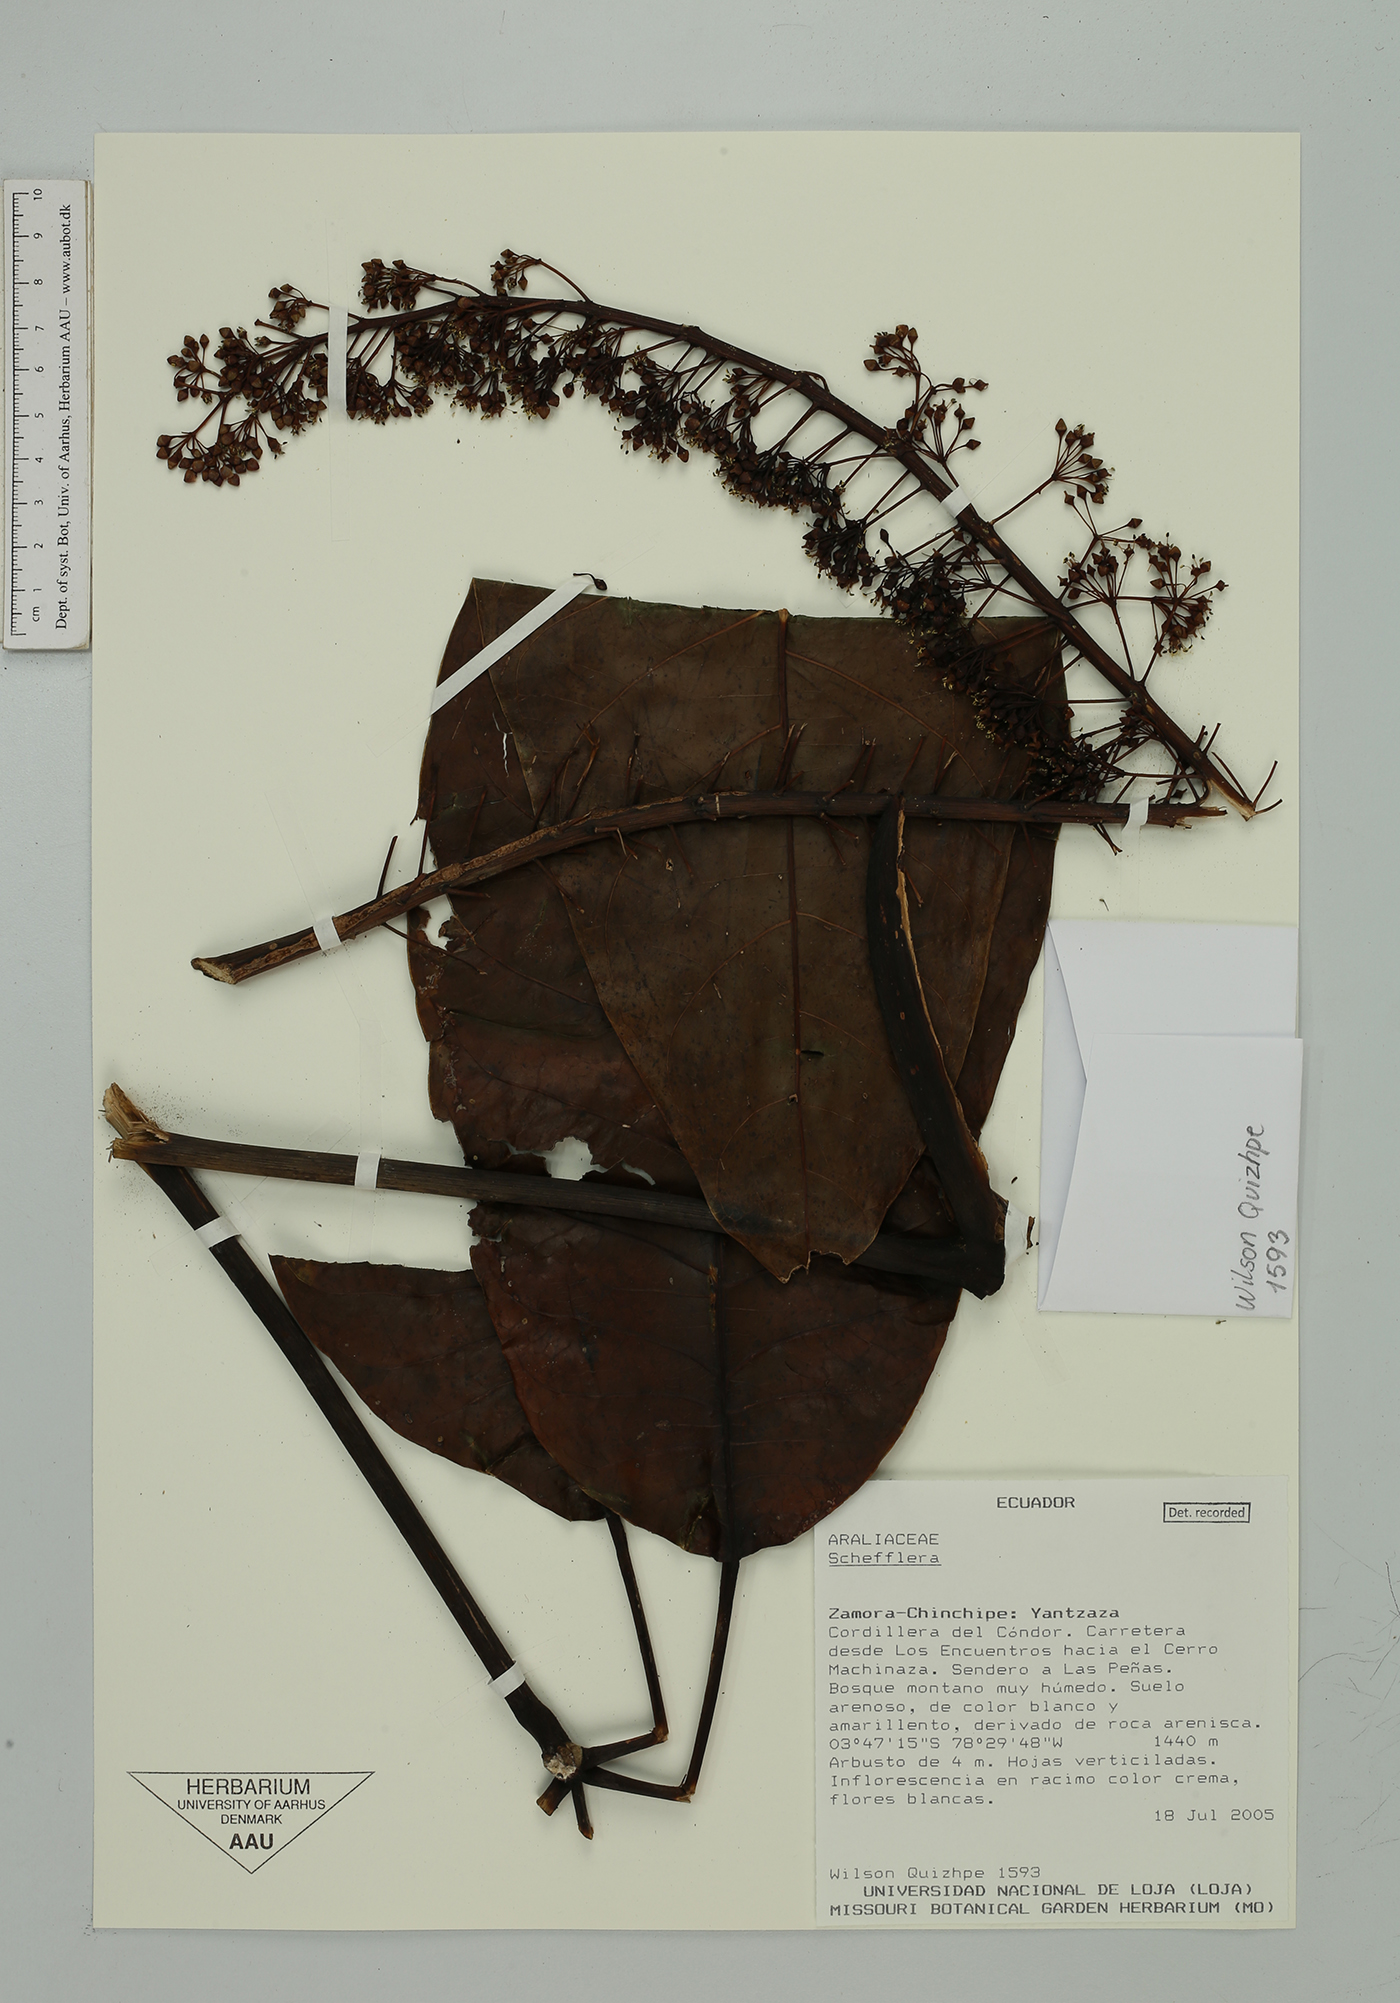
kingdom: Plantae
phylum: Tracheophyta
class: Magnoliopsida
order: Apiales
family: Araliaceae
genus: Sciodaphyllum
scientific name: Sciodaphyllum
